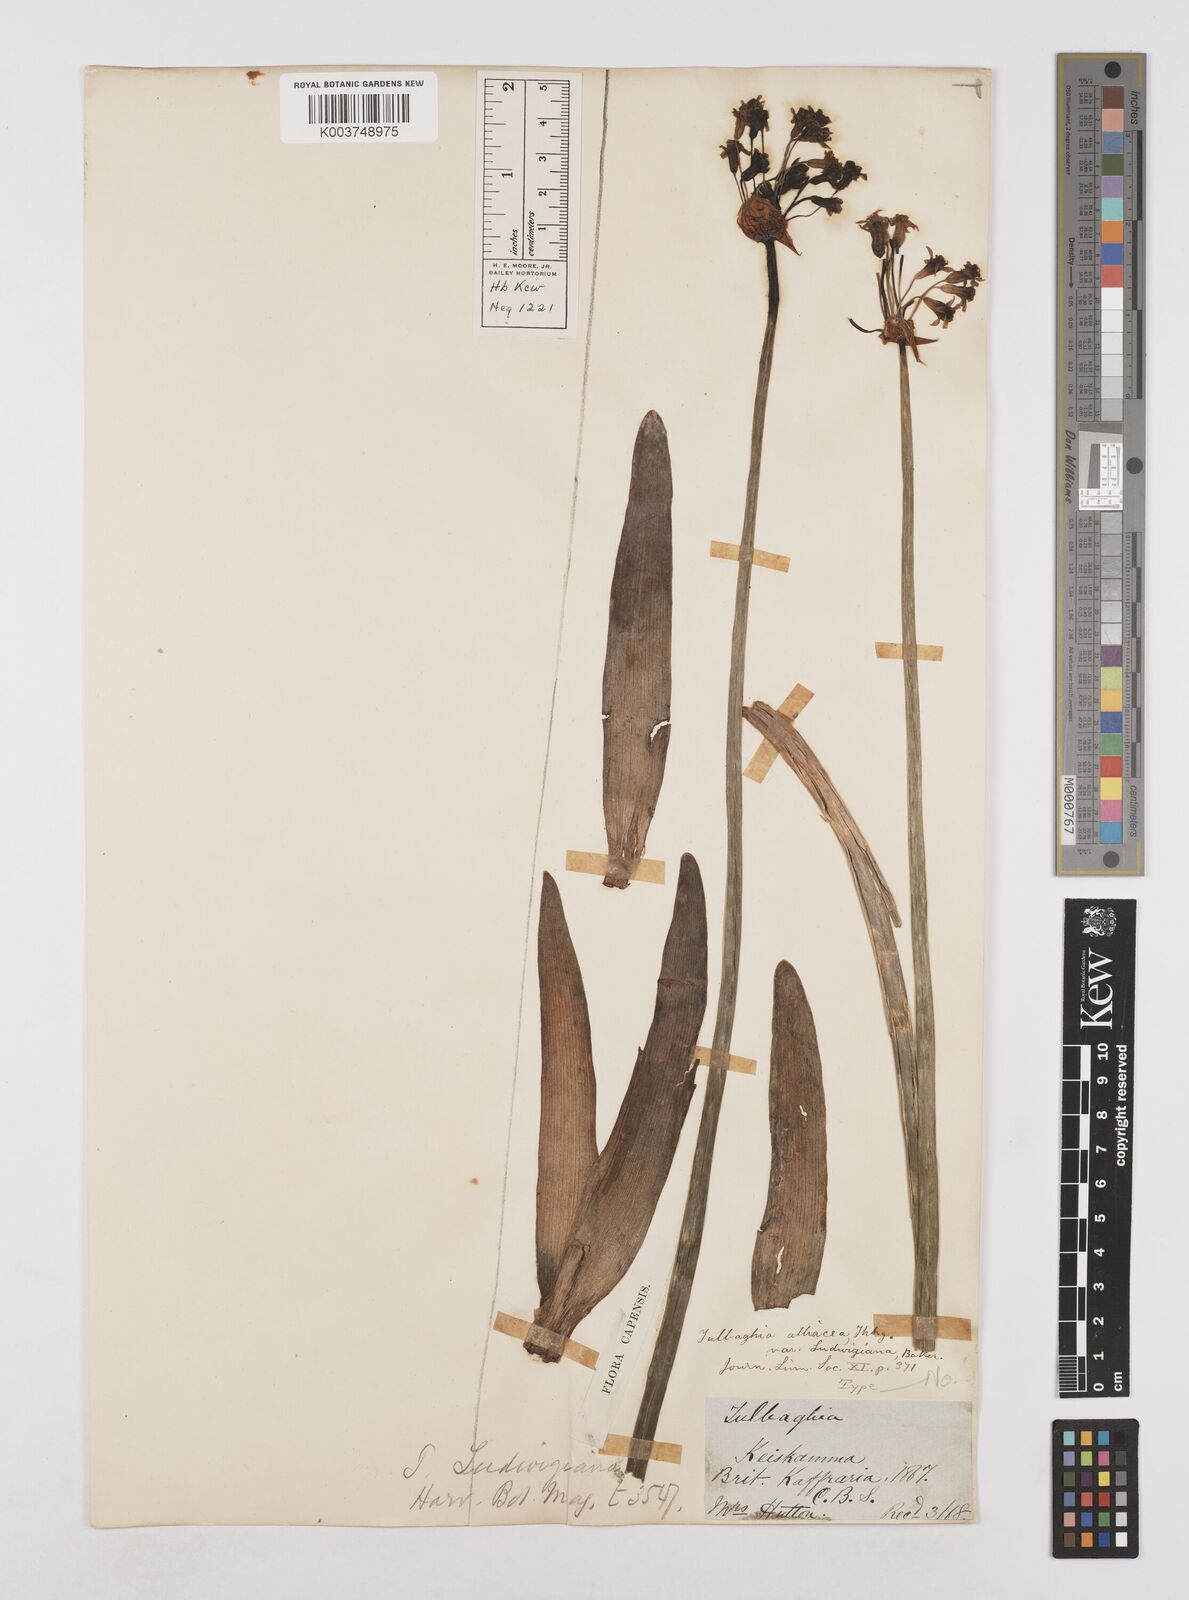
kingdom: Plantae
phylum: Tracheophyta
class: Liliopsida
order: Asparagales
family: Amaryllidaceae
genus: Tulbaghia
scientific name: Tulbaghia ludwigiana
